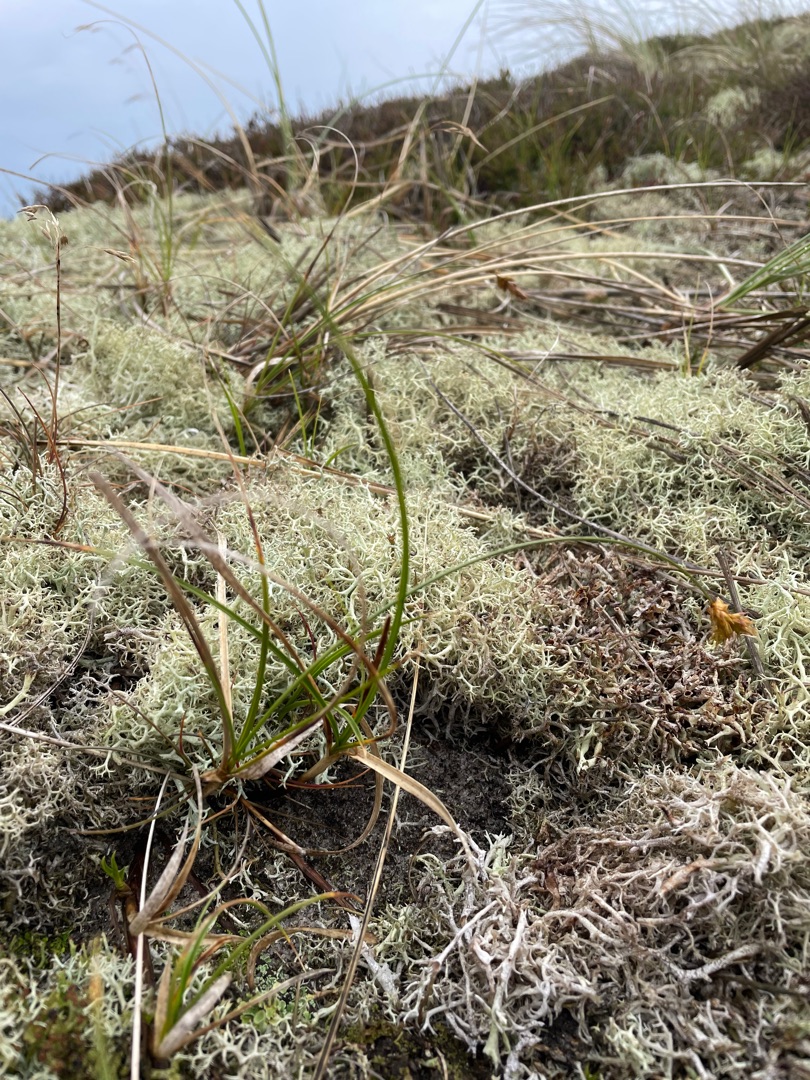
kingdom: Plantae
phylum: Tracheophyta
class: Liliopsida
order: Poales
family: Cyperaceae
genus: Carex
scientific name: Carex arenaria
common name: Sand-star
